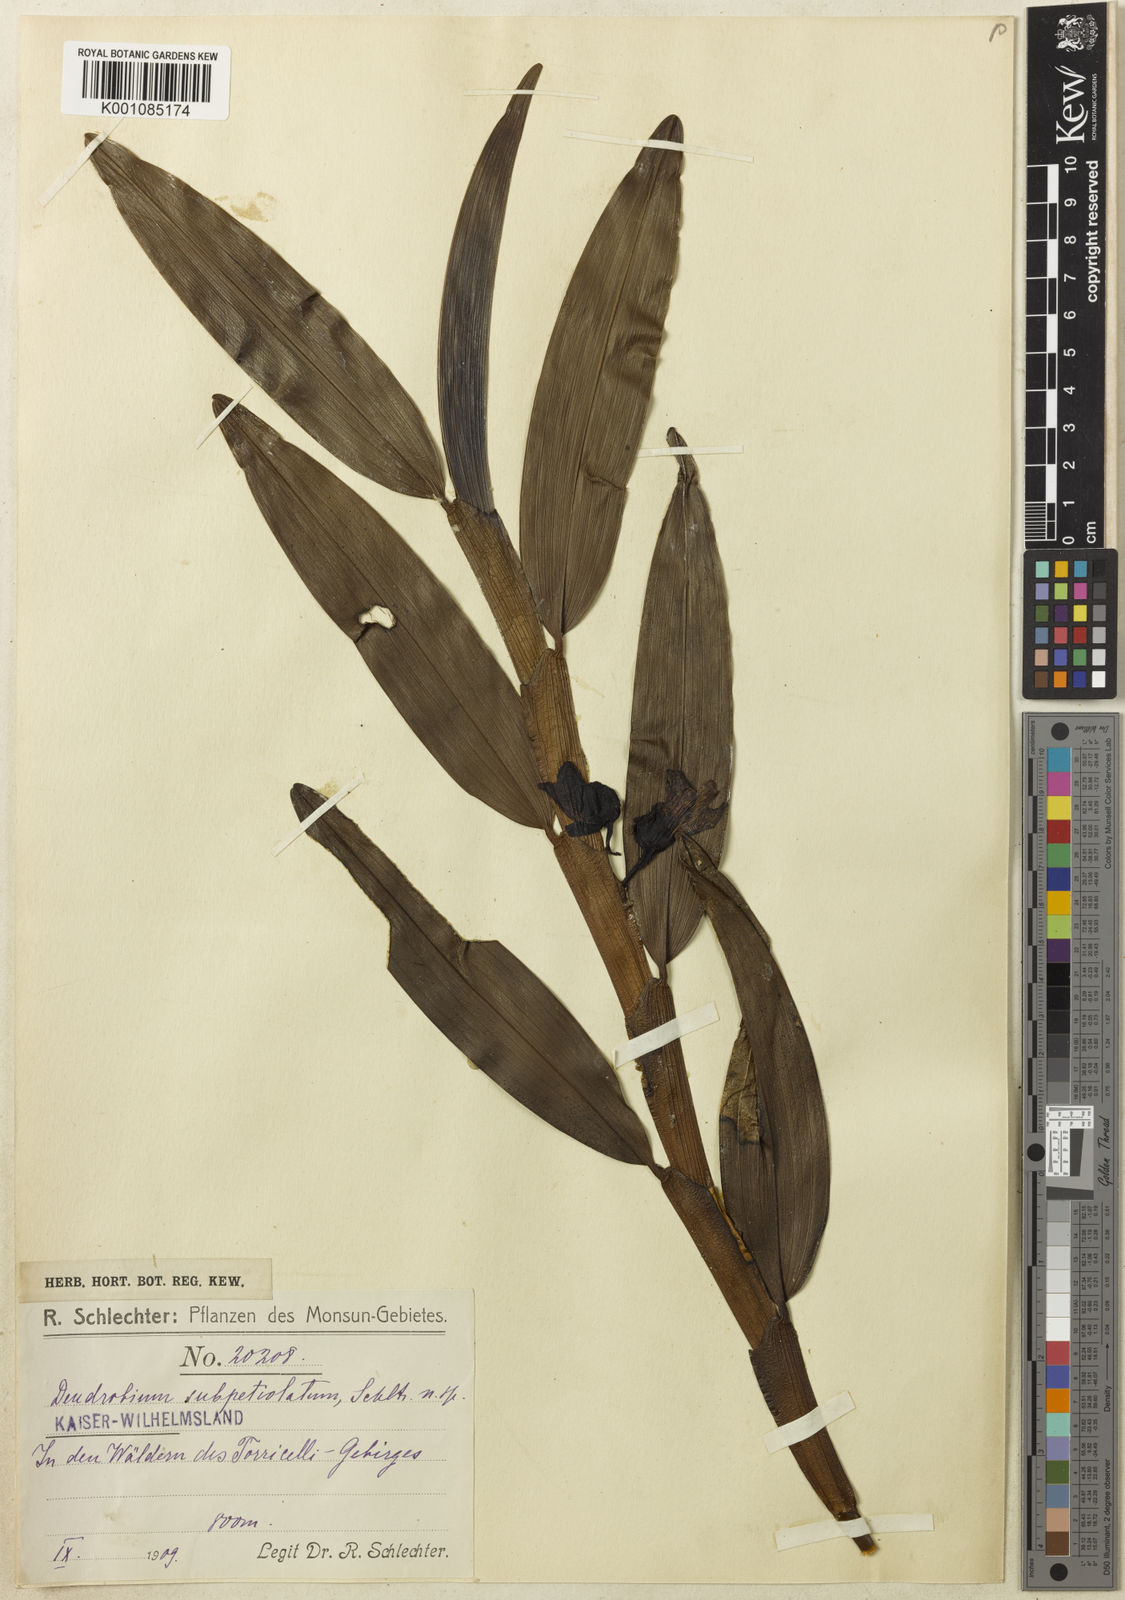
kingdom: Plantae
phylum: Tracheophyta
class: Liliopsida
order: Asparagales
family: Orchidaceae
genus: Dendrobium
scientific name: Dendrobium subpetiolatum
